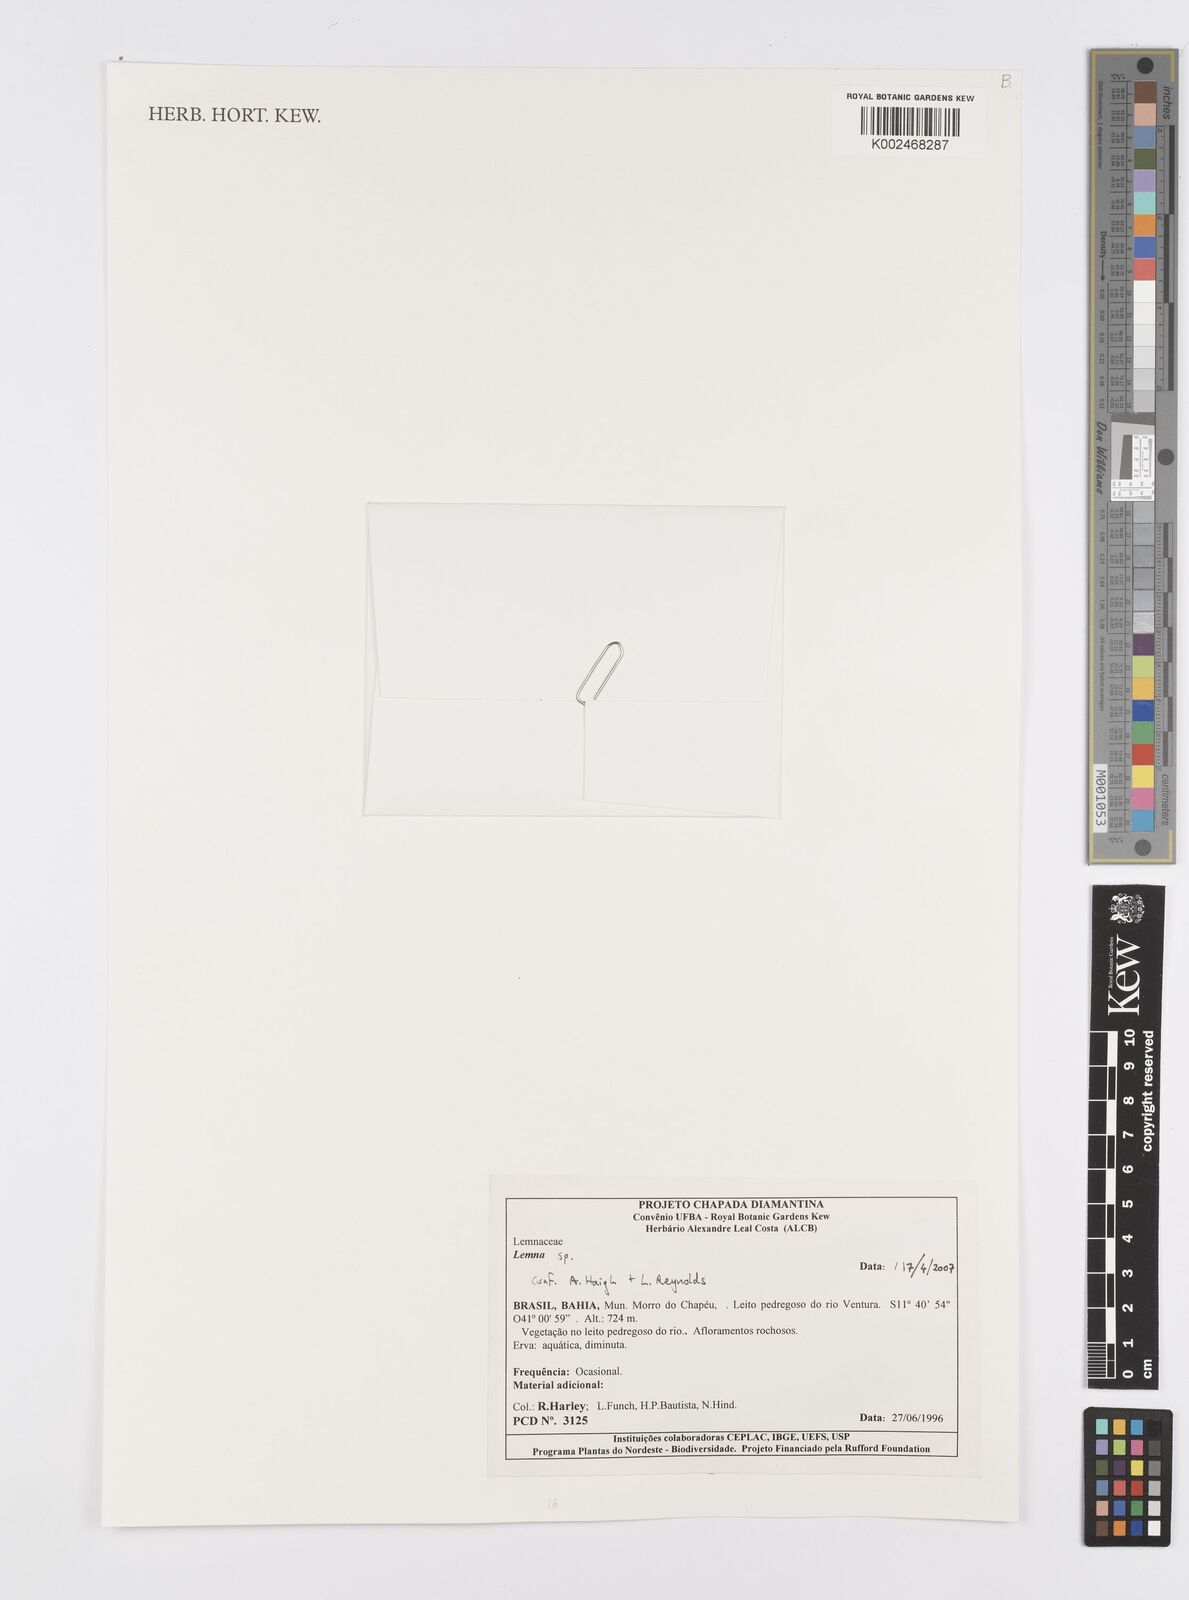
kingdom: Plantae
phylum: Tracheophyta
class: Liliopsida
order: Alismatales
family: Araceae
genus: Lemna
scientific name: Lemna
